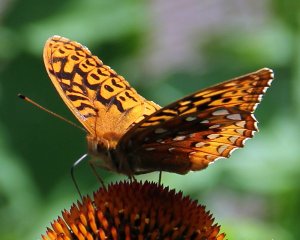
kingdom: Animalia
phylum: Arthropoda
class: Insecta
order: Lepidoptera
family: Nymphalidae
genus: Speyeria
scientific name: Speyeria cybele
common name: Great Spangled Fritillary
